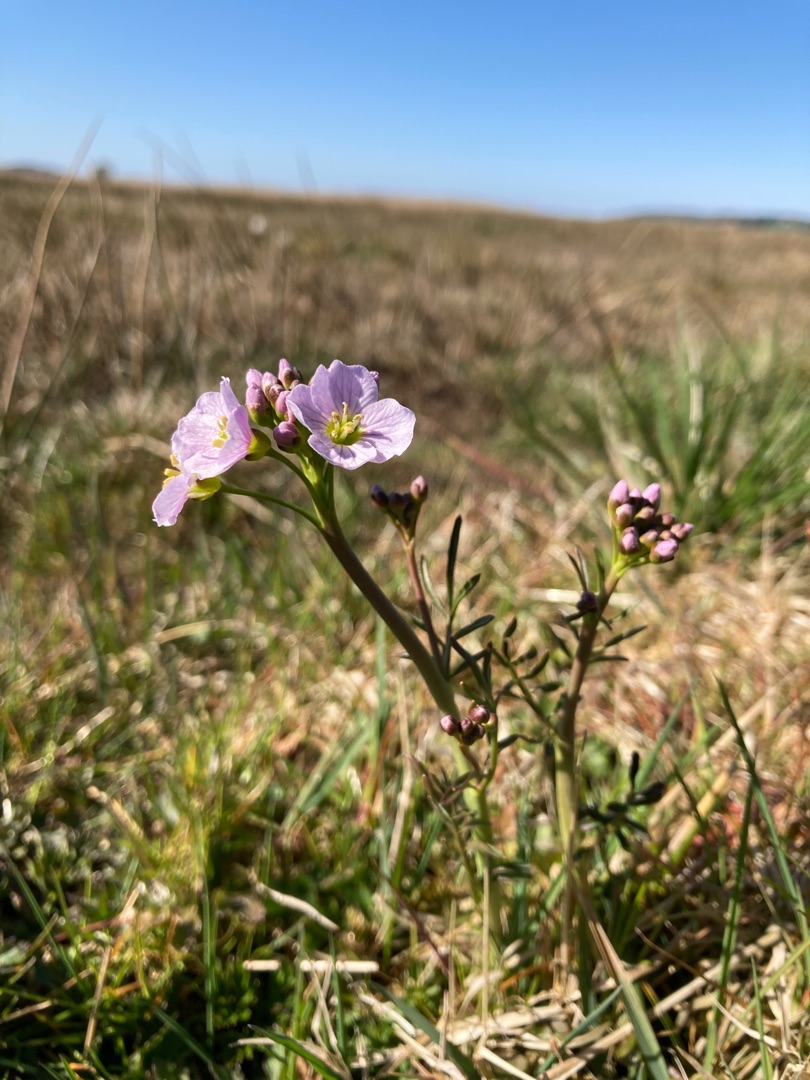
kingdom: Plantae
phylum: Tracheophyta
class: Magnoliopsida
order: Brassicales
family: Brassicaceae
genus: Cardamine
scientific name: Cardamine pratensis
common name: Engkarse
